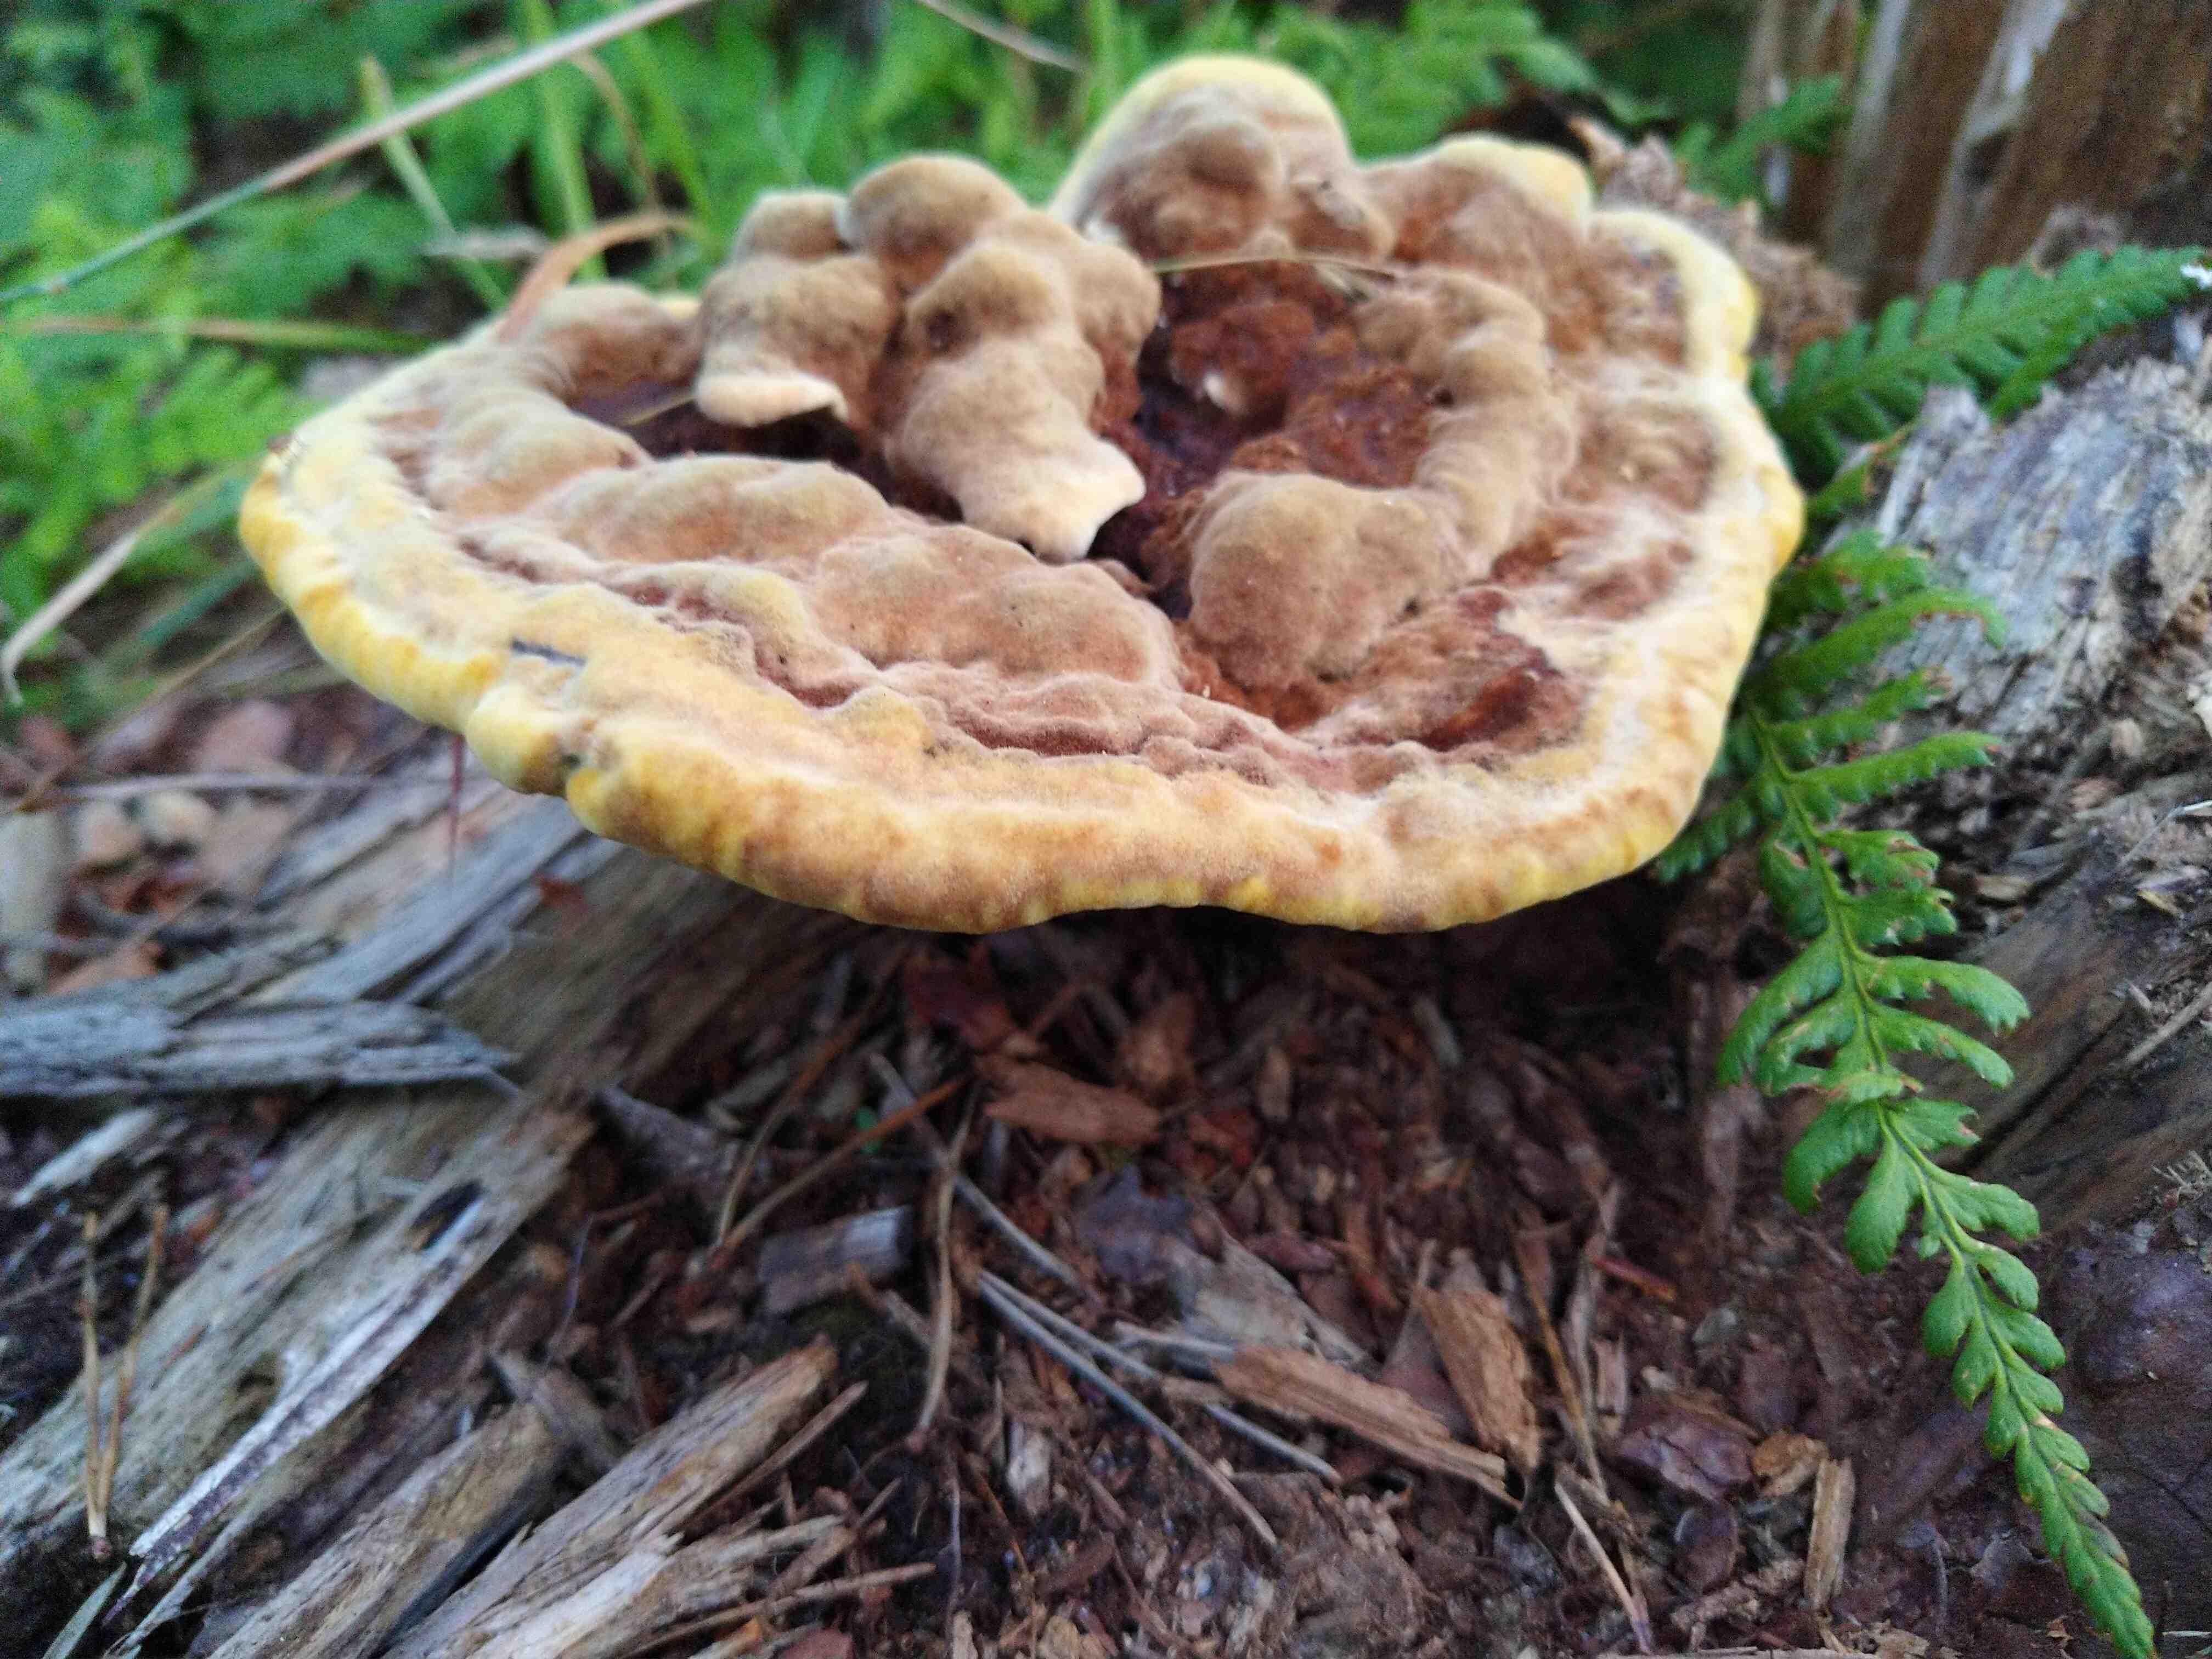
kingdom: Fungi
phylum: Basidiomycota
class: Agaricomycetes
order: Polyporales
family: Laetiporaceae
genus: Phaeolus
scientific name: Phaeolus schweinitzii
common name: brunporesvamp
